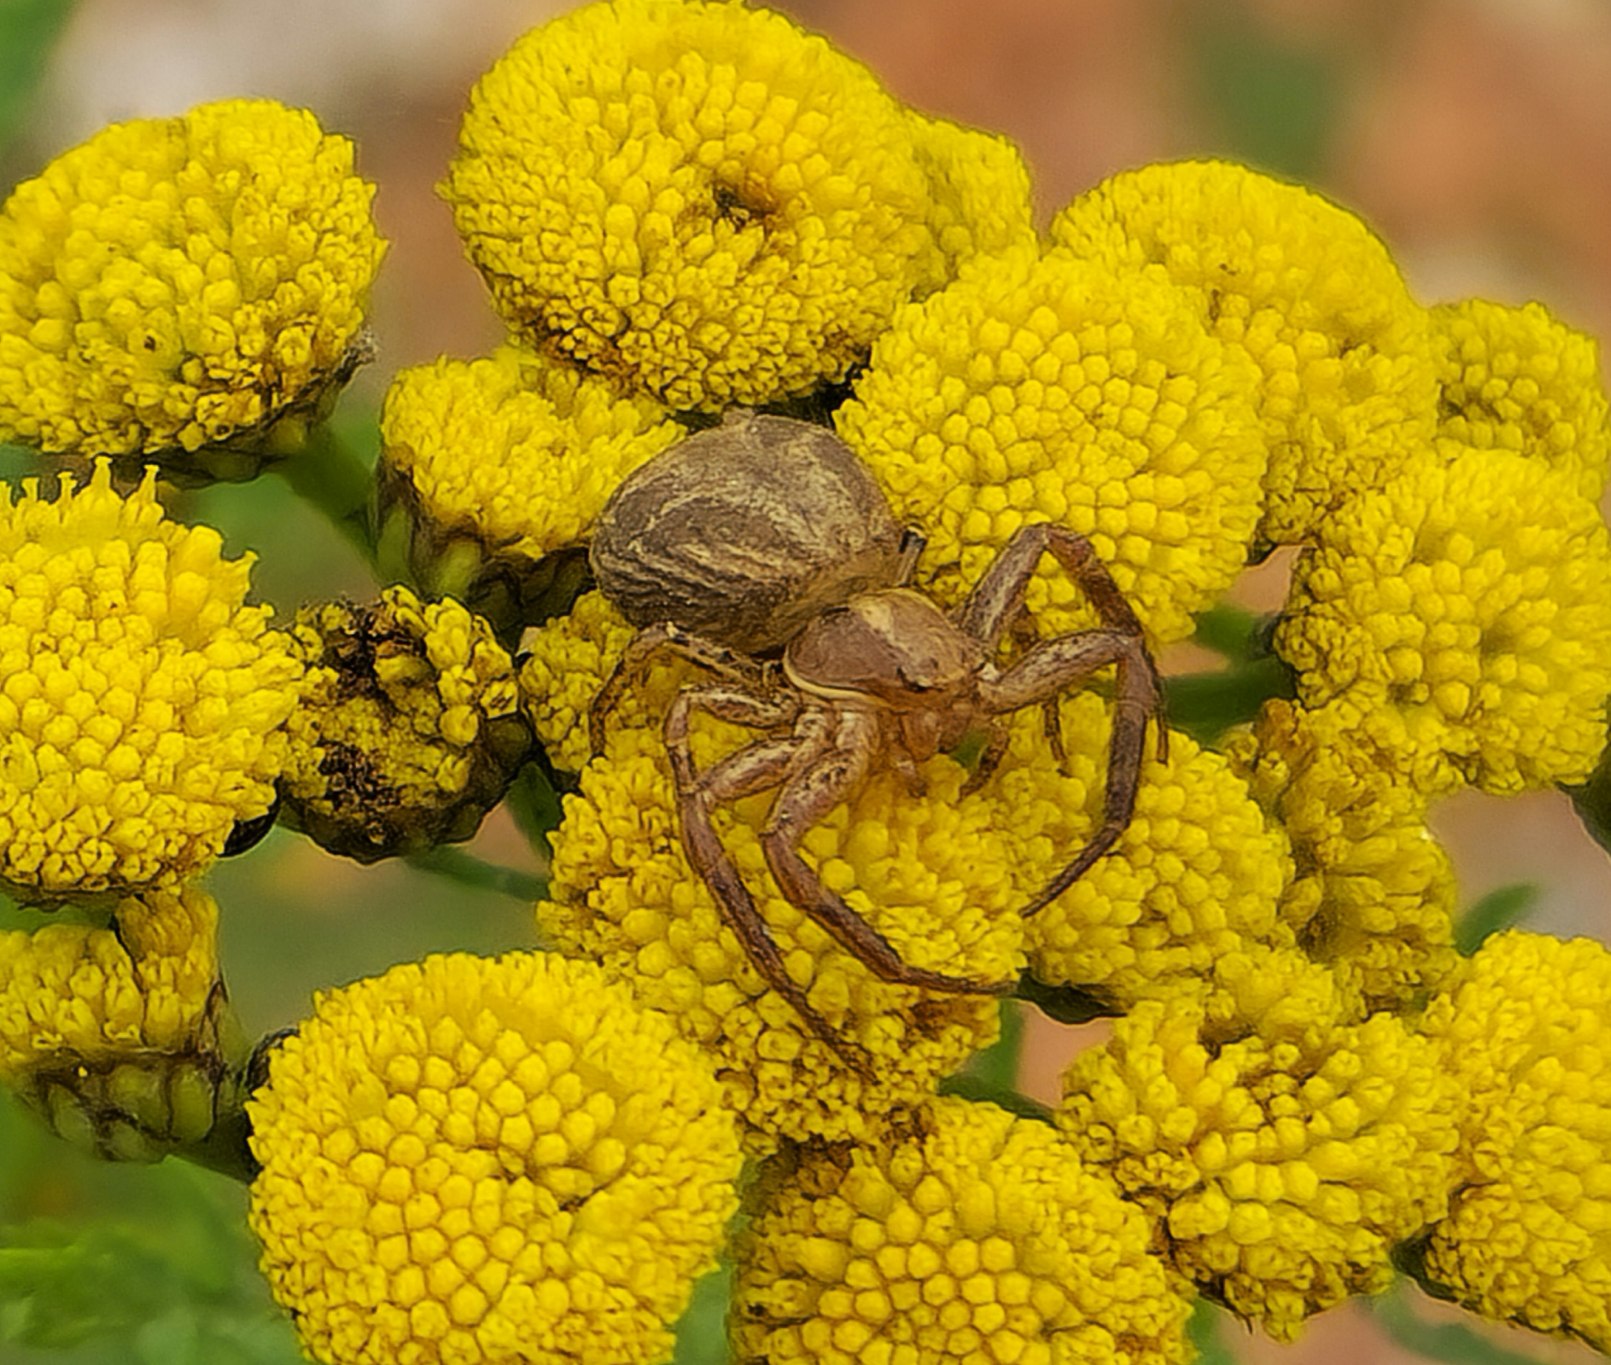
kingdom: Animalia
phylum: Arthropoda
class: Arachnida
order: Araneae
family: Thomisidae
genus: Xysticus
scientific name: Xysticus kochi
